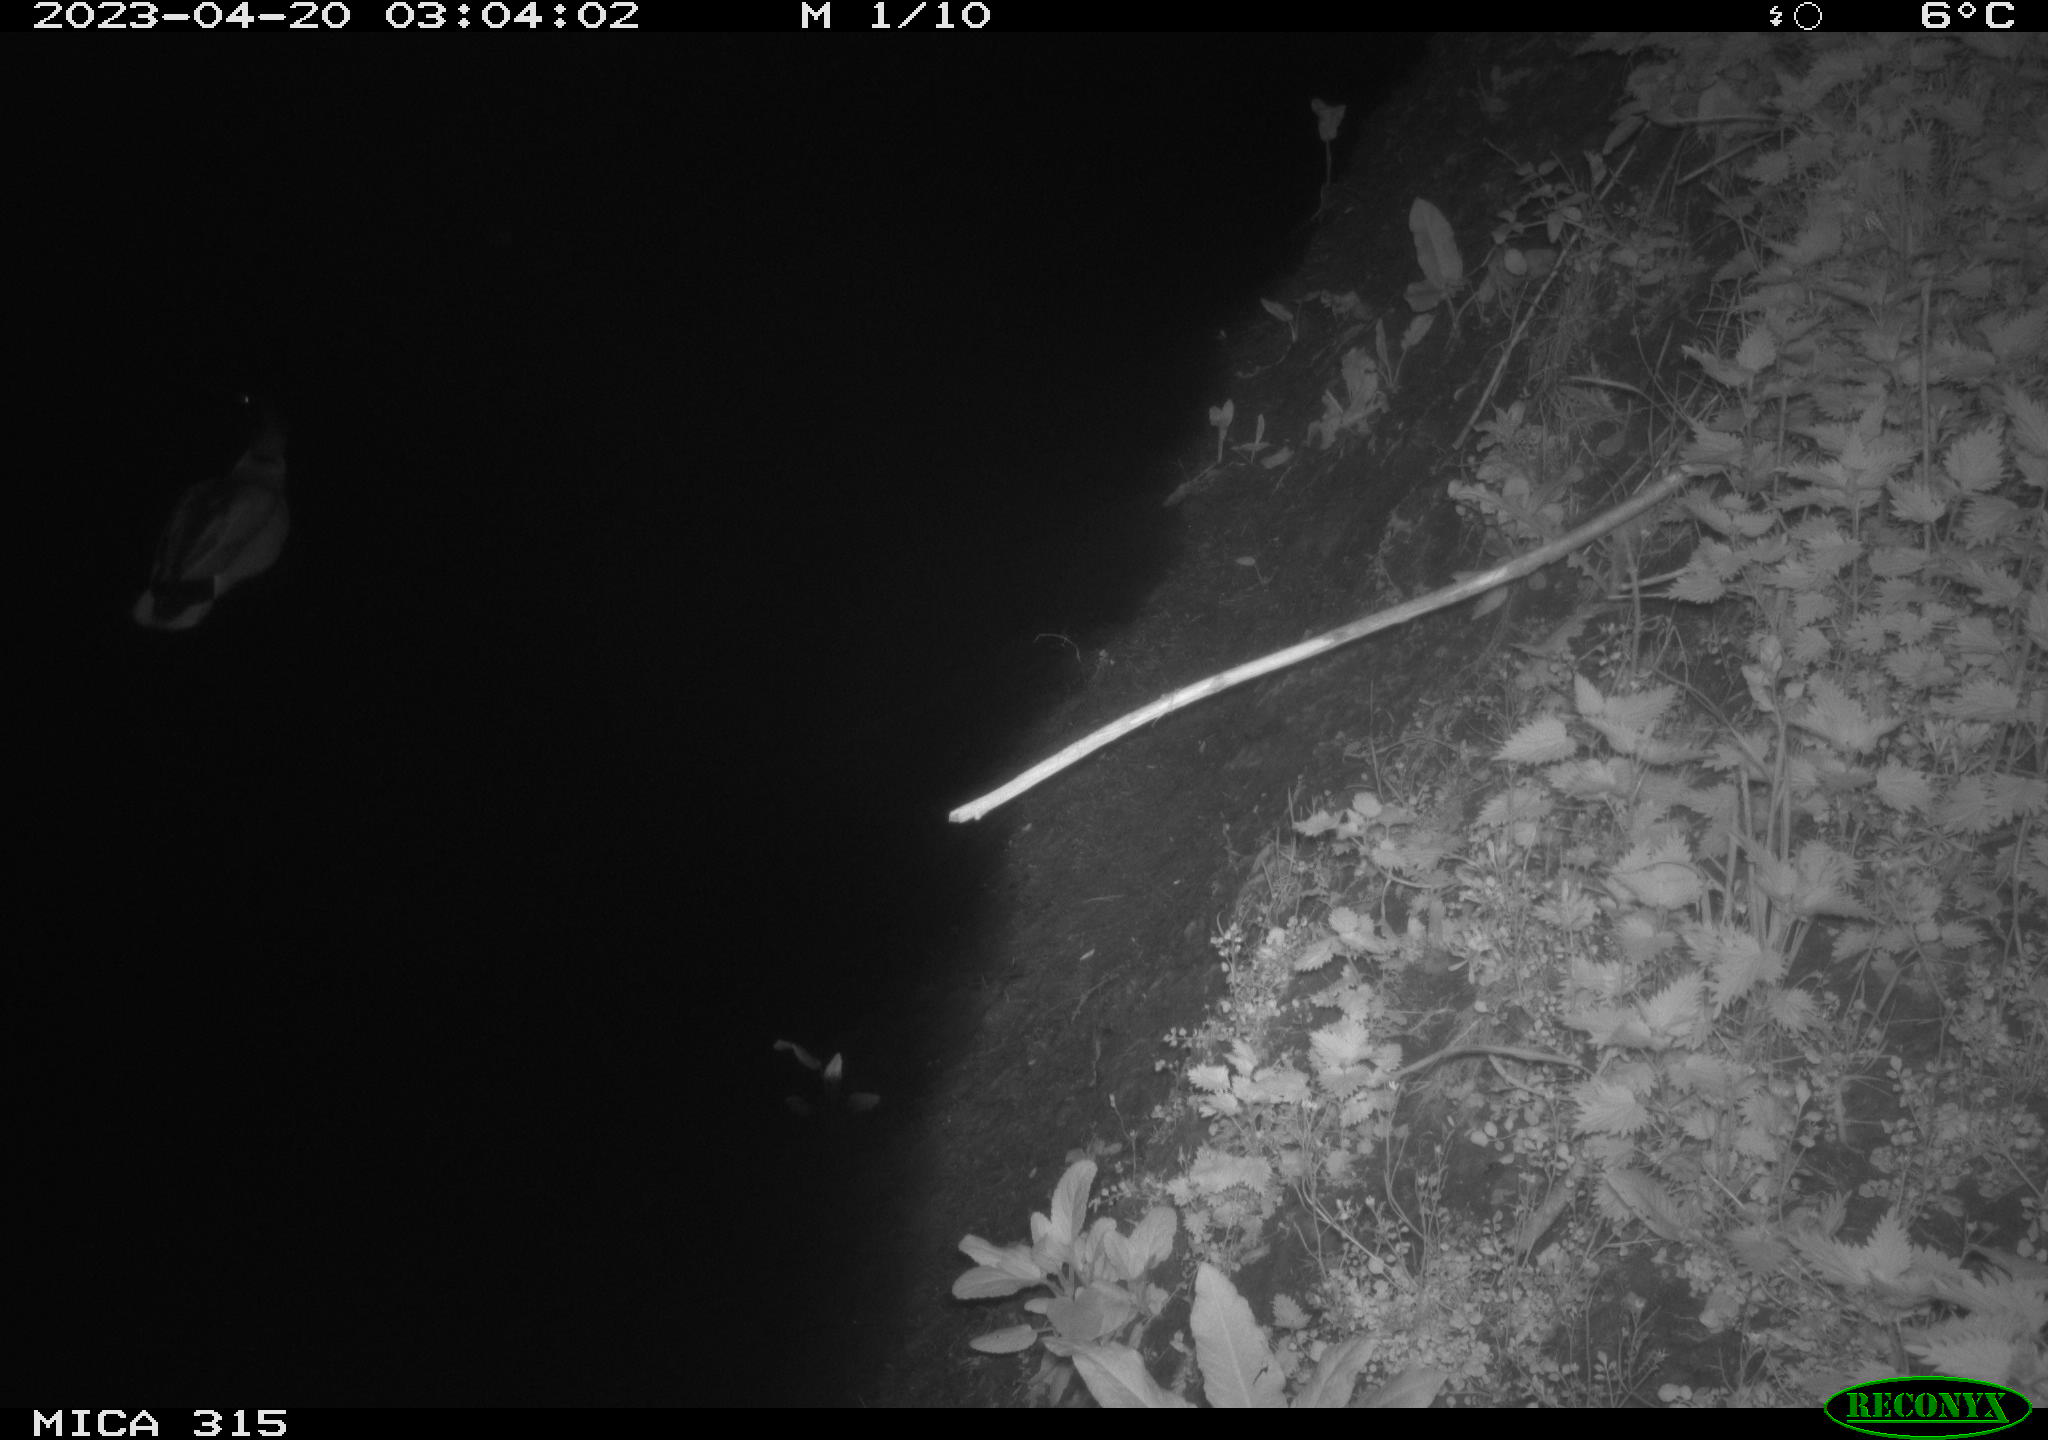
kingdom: Animalia
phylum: Chordata
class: Aves
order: Anseriformes
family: Anatidae
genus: Anas
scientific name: Anas
